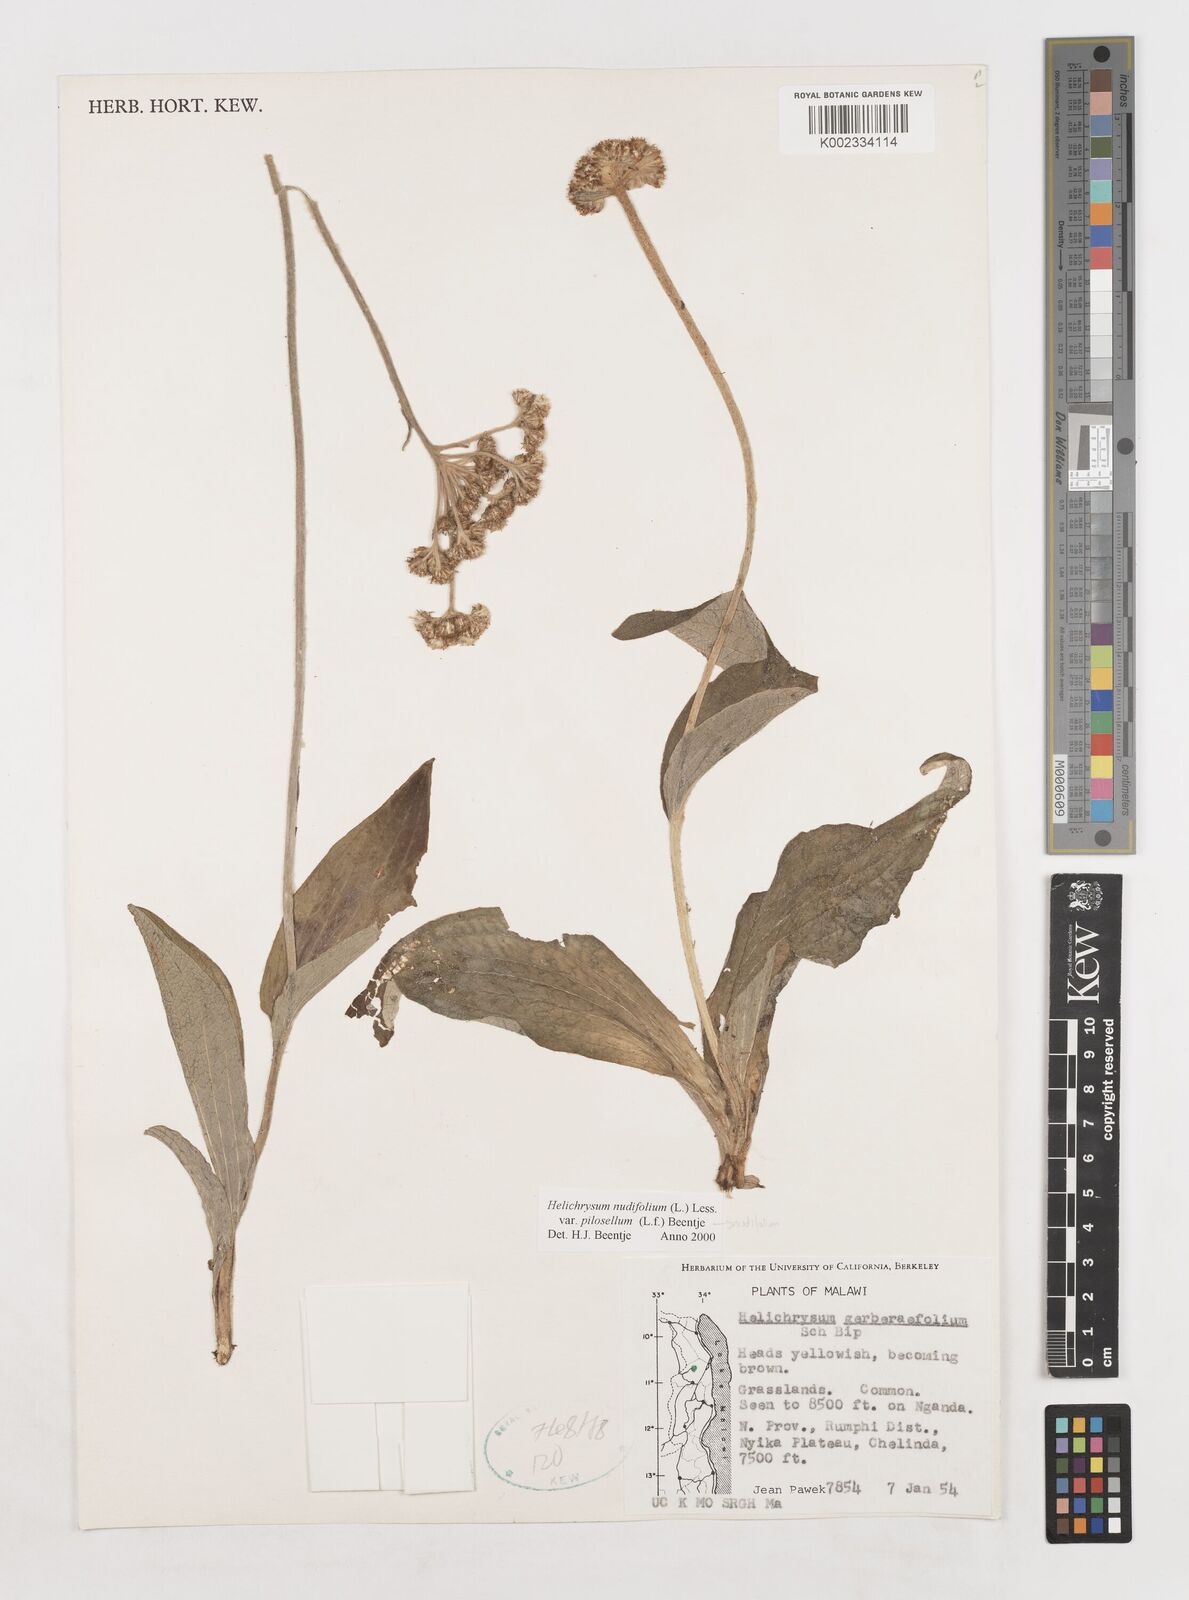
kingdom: Plantae
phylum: Tracheophyta
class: Magnoliopsida
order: Asterales
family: Asteraceae
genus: Helichrysum
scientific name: Helichrysum nudifolium
